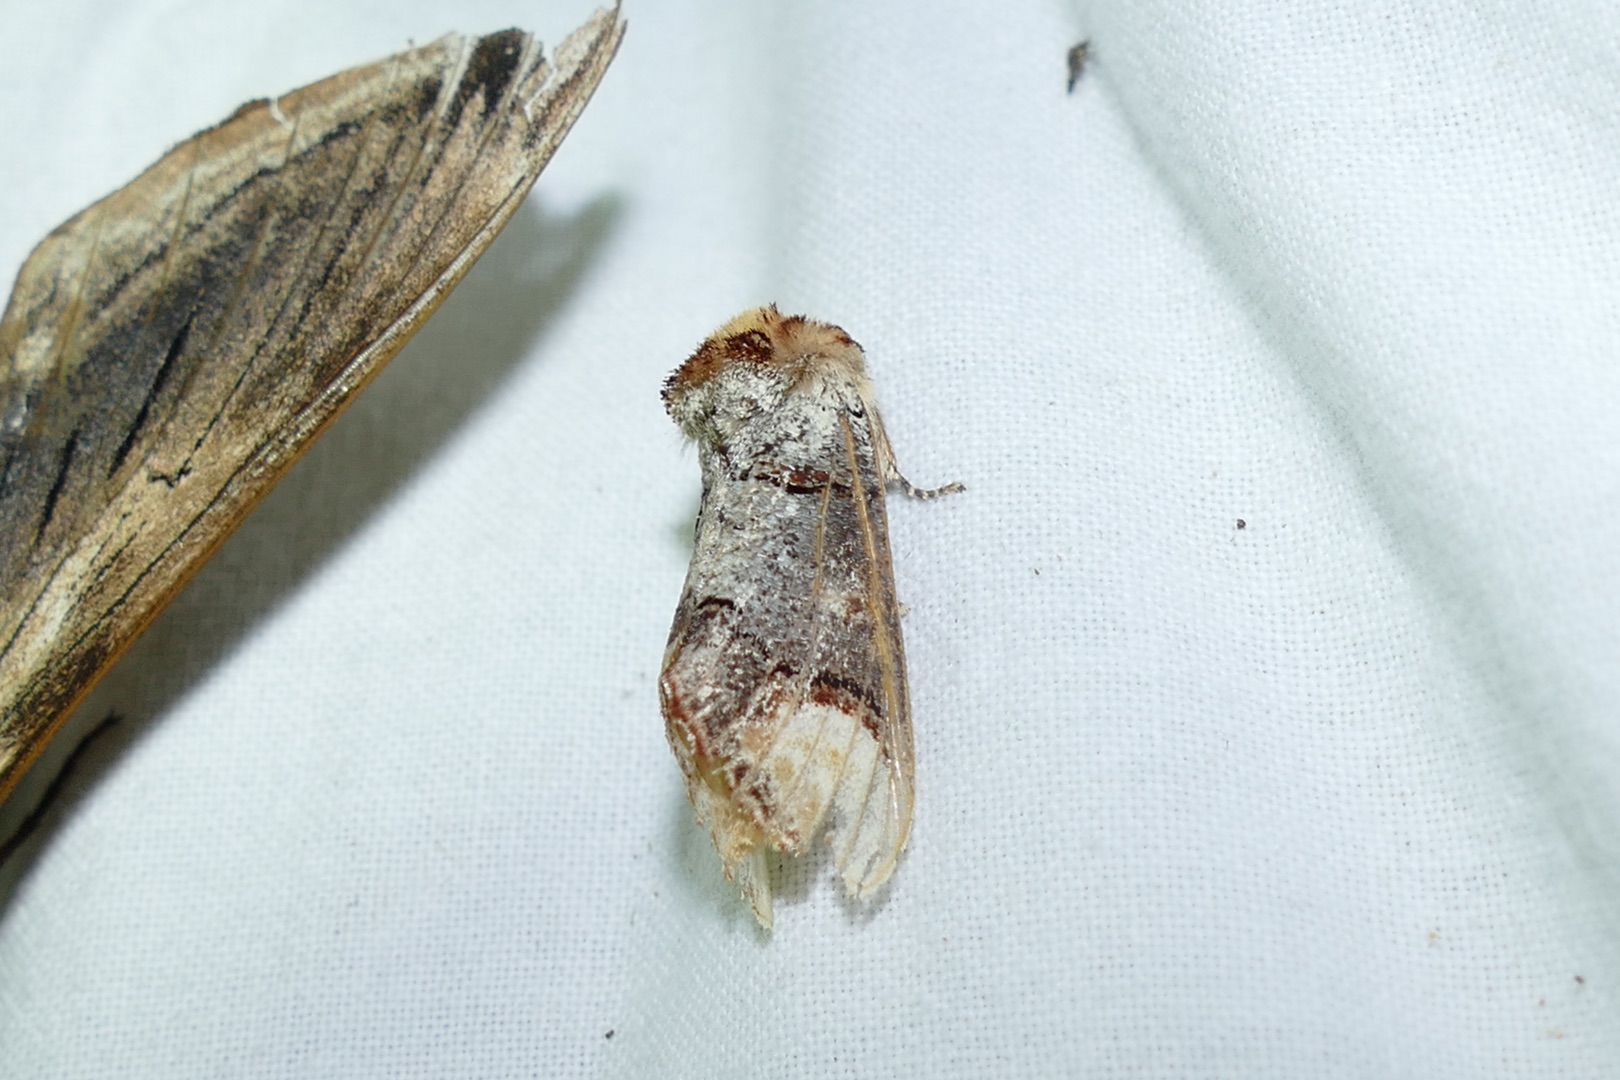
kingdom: Animalia
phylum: Arthropoda
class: Insecta
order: Lepidoptera
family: Notodontidae
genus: Phalera
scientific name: Phalera bucephala
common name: Måneplet
